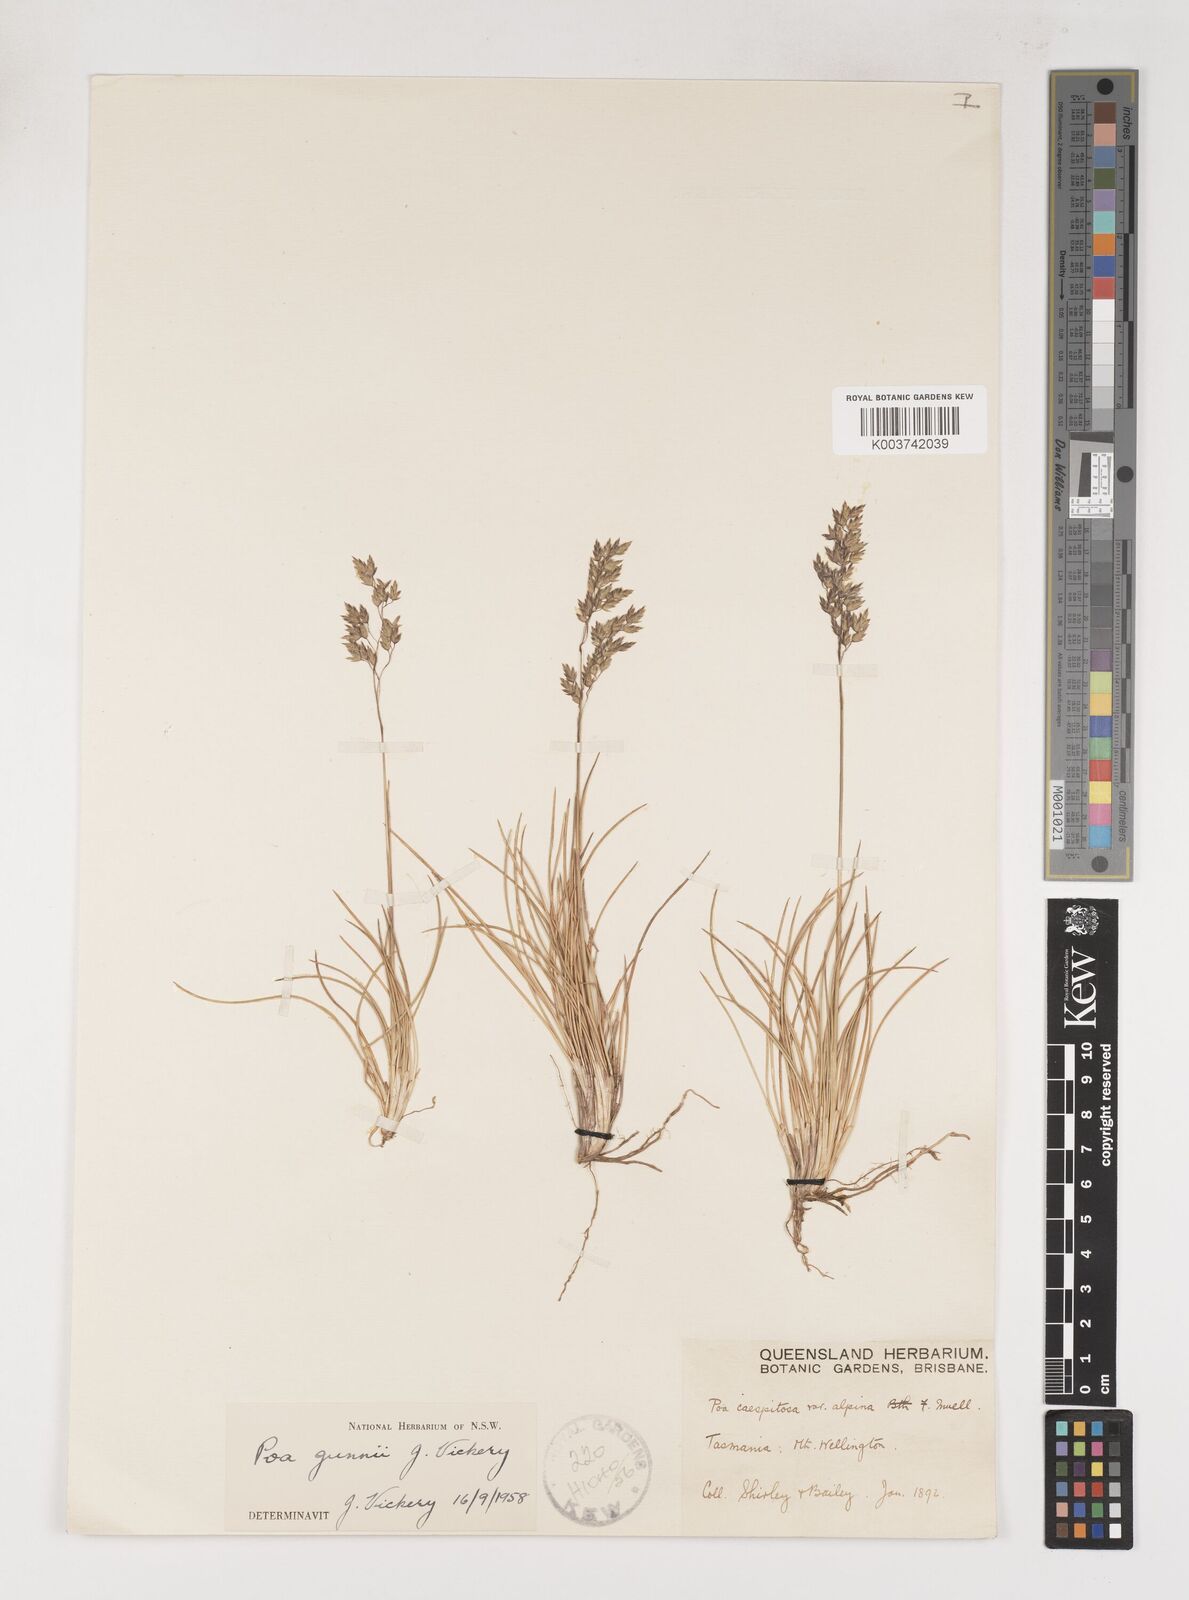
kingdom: Plantae
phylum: Tracheophyta
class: Liliopsida
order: Poales
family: Poaceae
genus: Poa
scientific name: Poa gunnii
